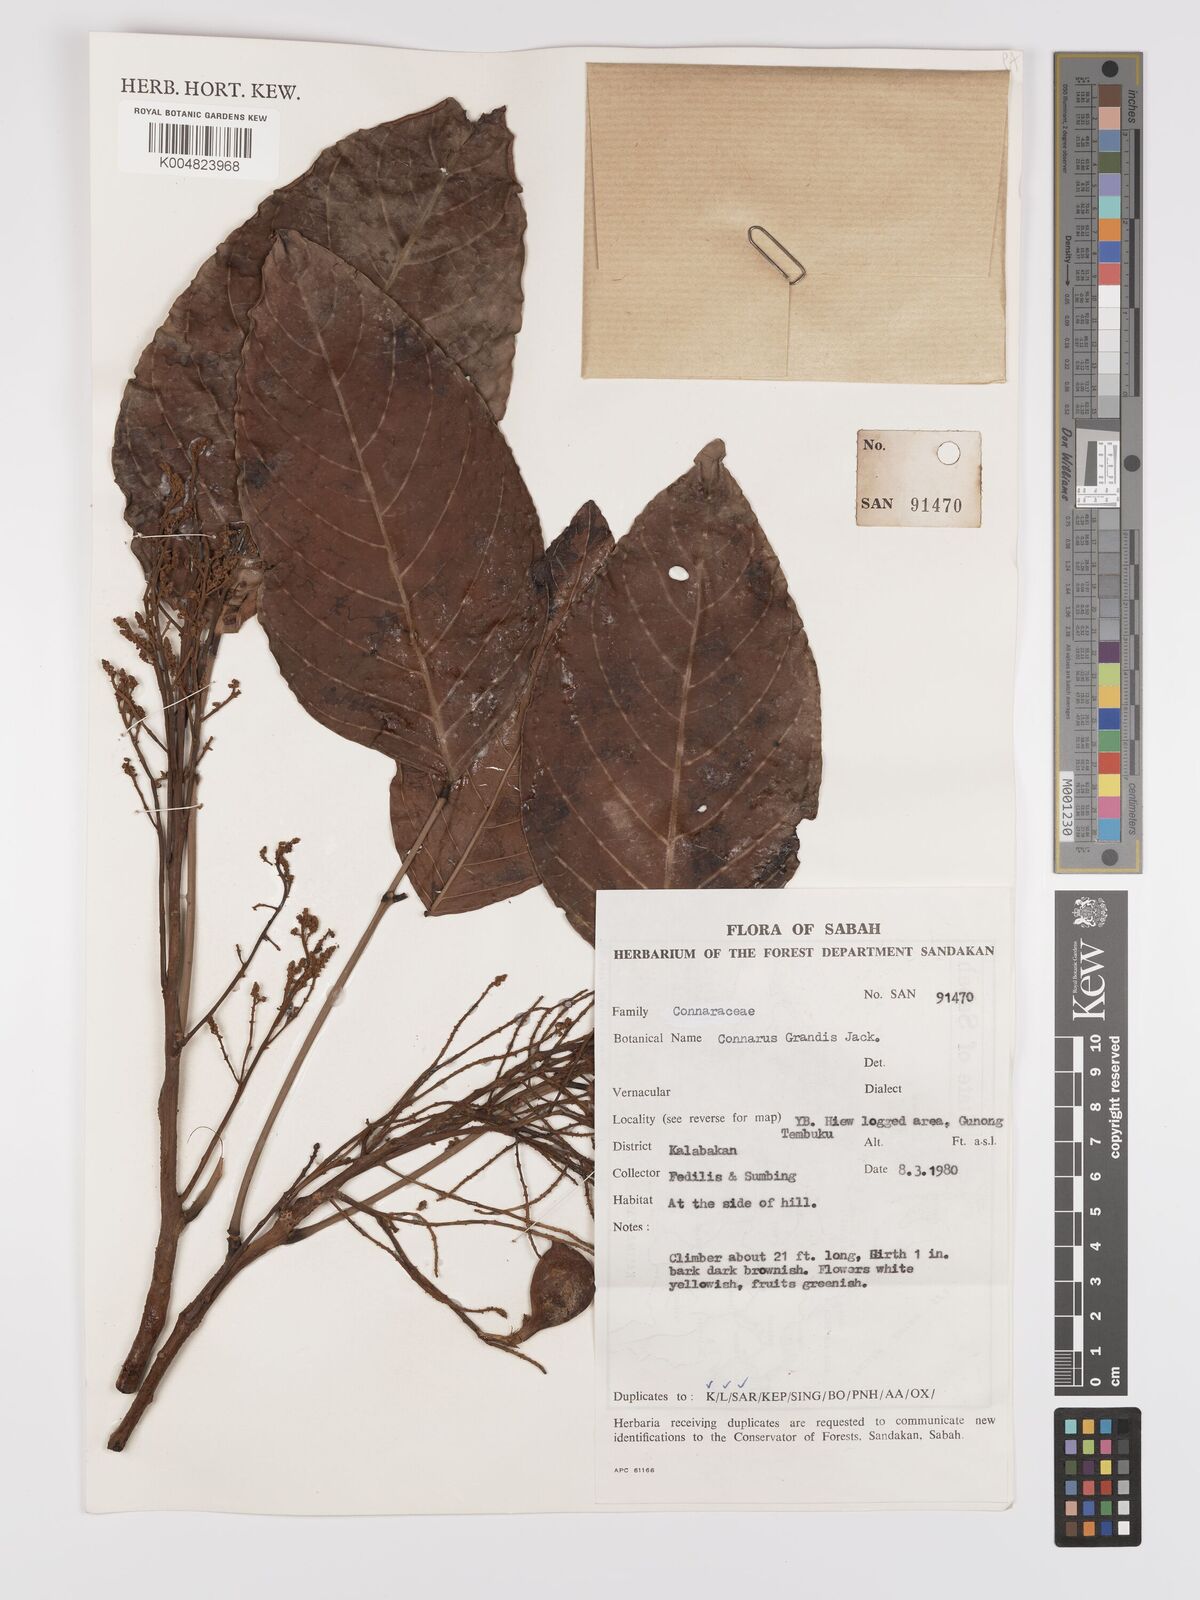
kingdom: Plantae
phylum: Tracheophyta
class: Magnoliopsida
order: Oxalidales
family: Connaraceae
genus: Connarus
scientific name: Connarus grandis
